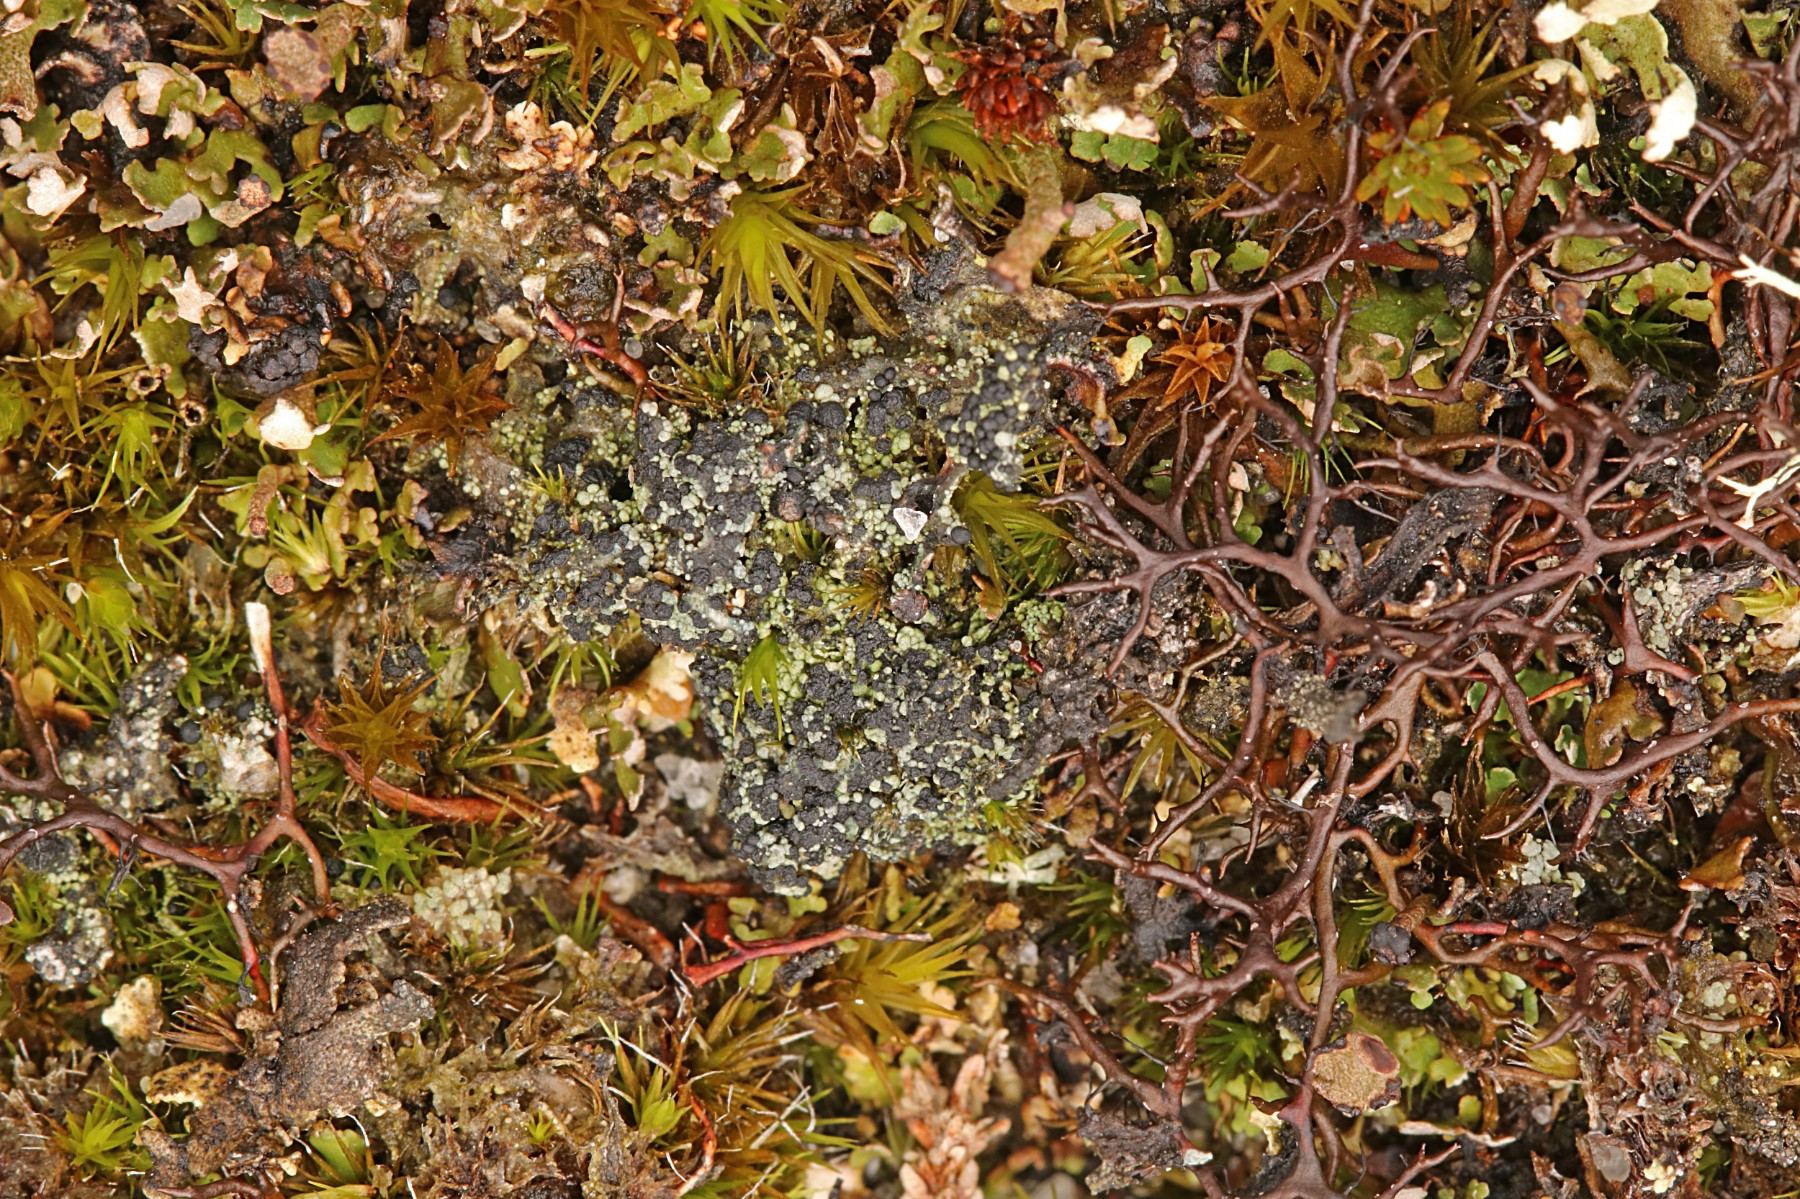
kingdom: Fungi
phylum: Ascomycota
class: Lecanoromycetes
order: Lecanorales
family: Byssolomataceae
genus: Micarea
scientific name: Micarea lignaria
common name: tørve-knaplav
